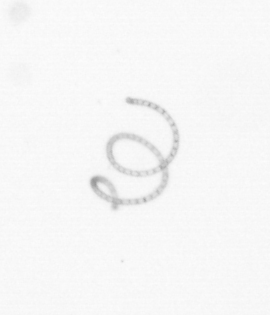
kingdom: Chromista
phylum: Ochrophyta
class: Bacillariophyceae
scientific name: Bacillariophyceae
